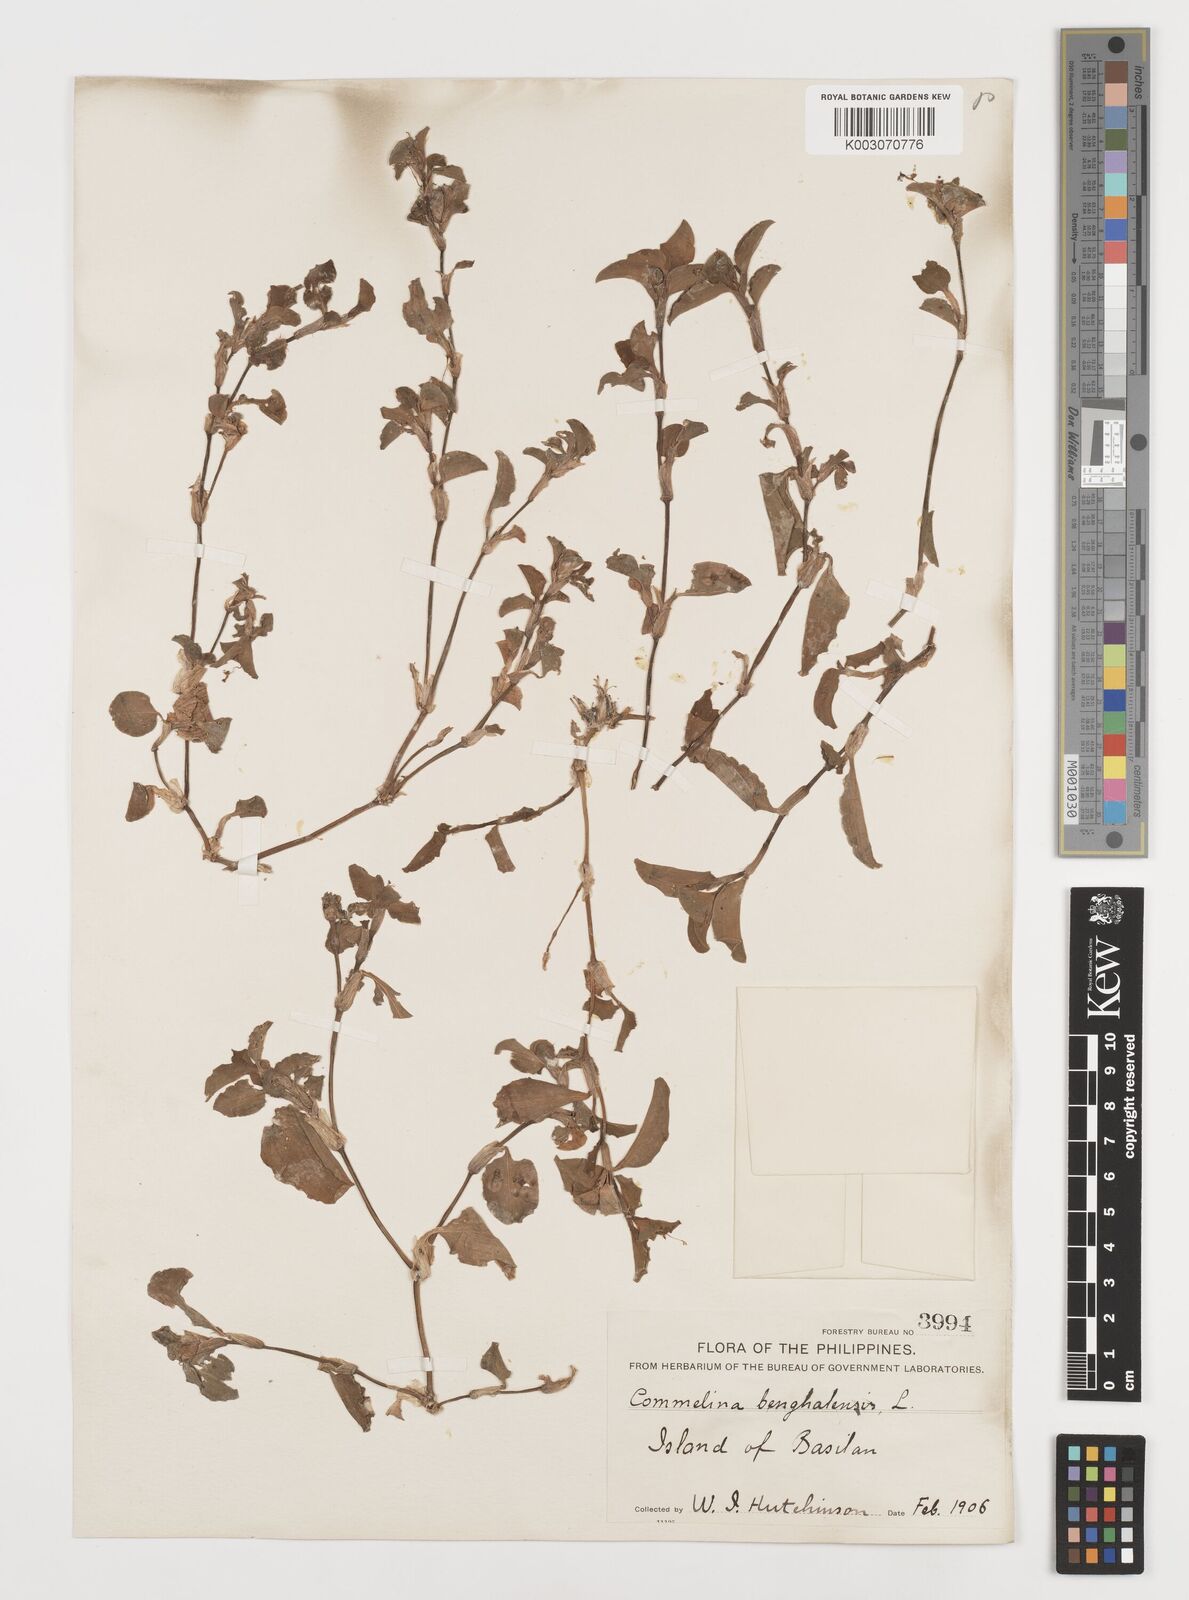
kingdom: Plantae
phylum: Tracheophyta
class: Liliopsida
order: Commelinales
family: Commelinaceae
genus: Commelina
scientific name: Commelina benghalensis
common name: Jio
